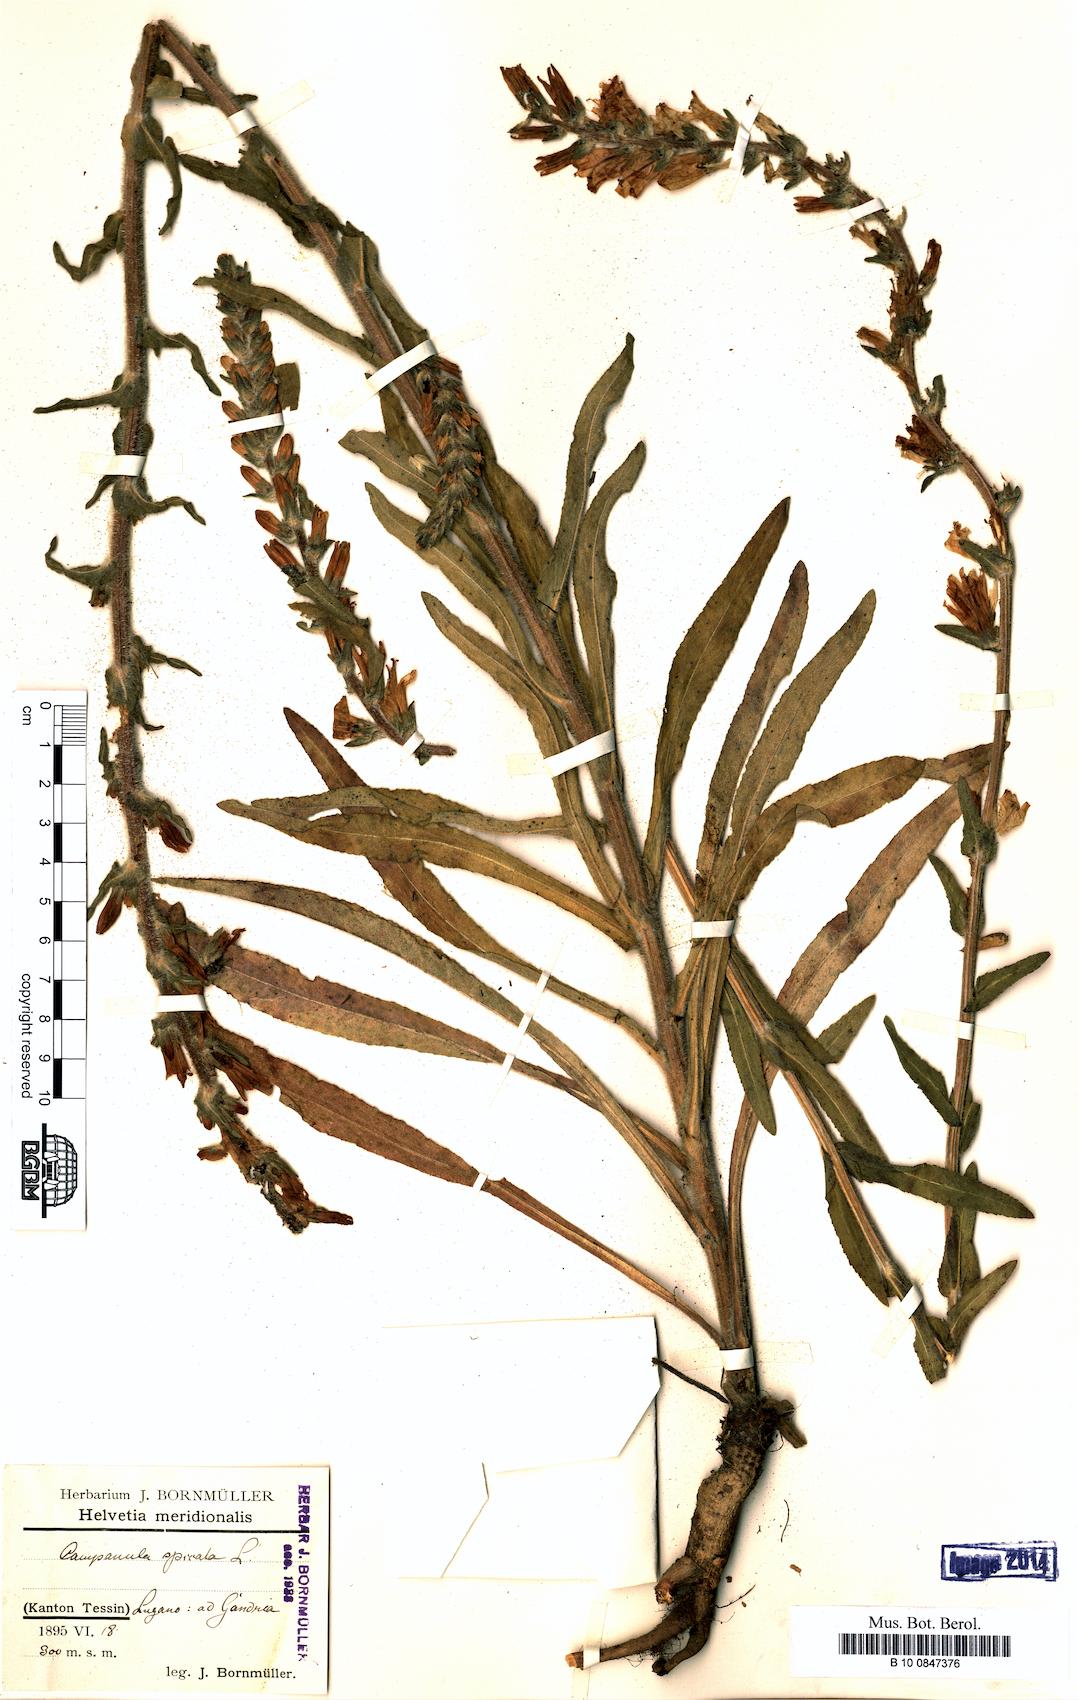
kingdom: Plantae
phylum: Tracheophyta
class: Magnoliopsida
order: Asterales
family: Campanulaceae
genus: Campanula
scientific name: Campanula spicata
